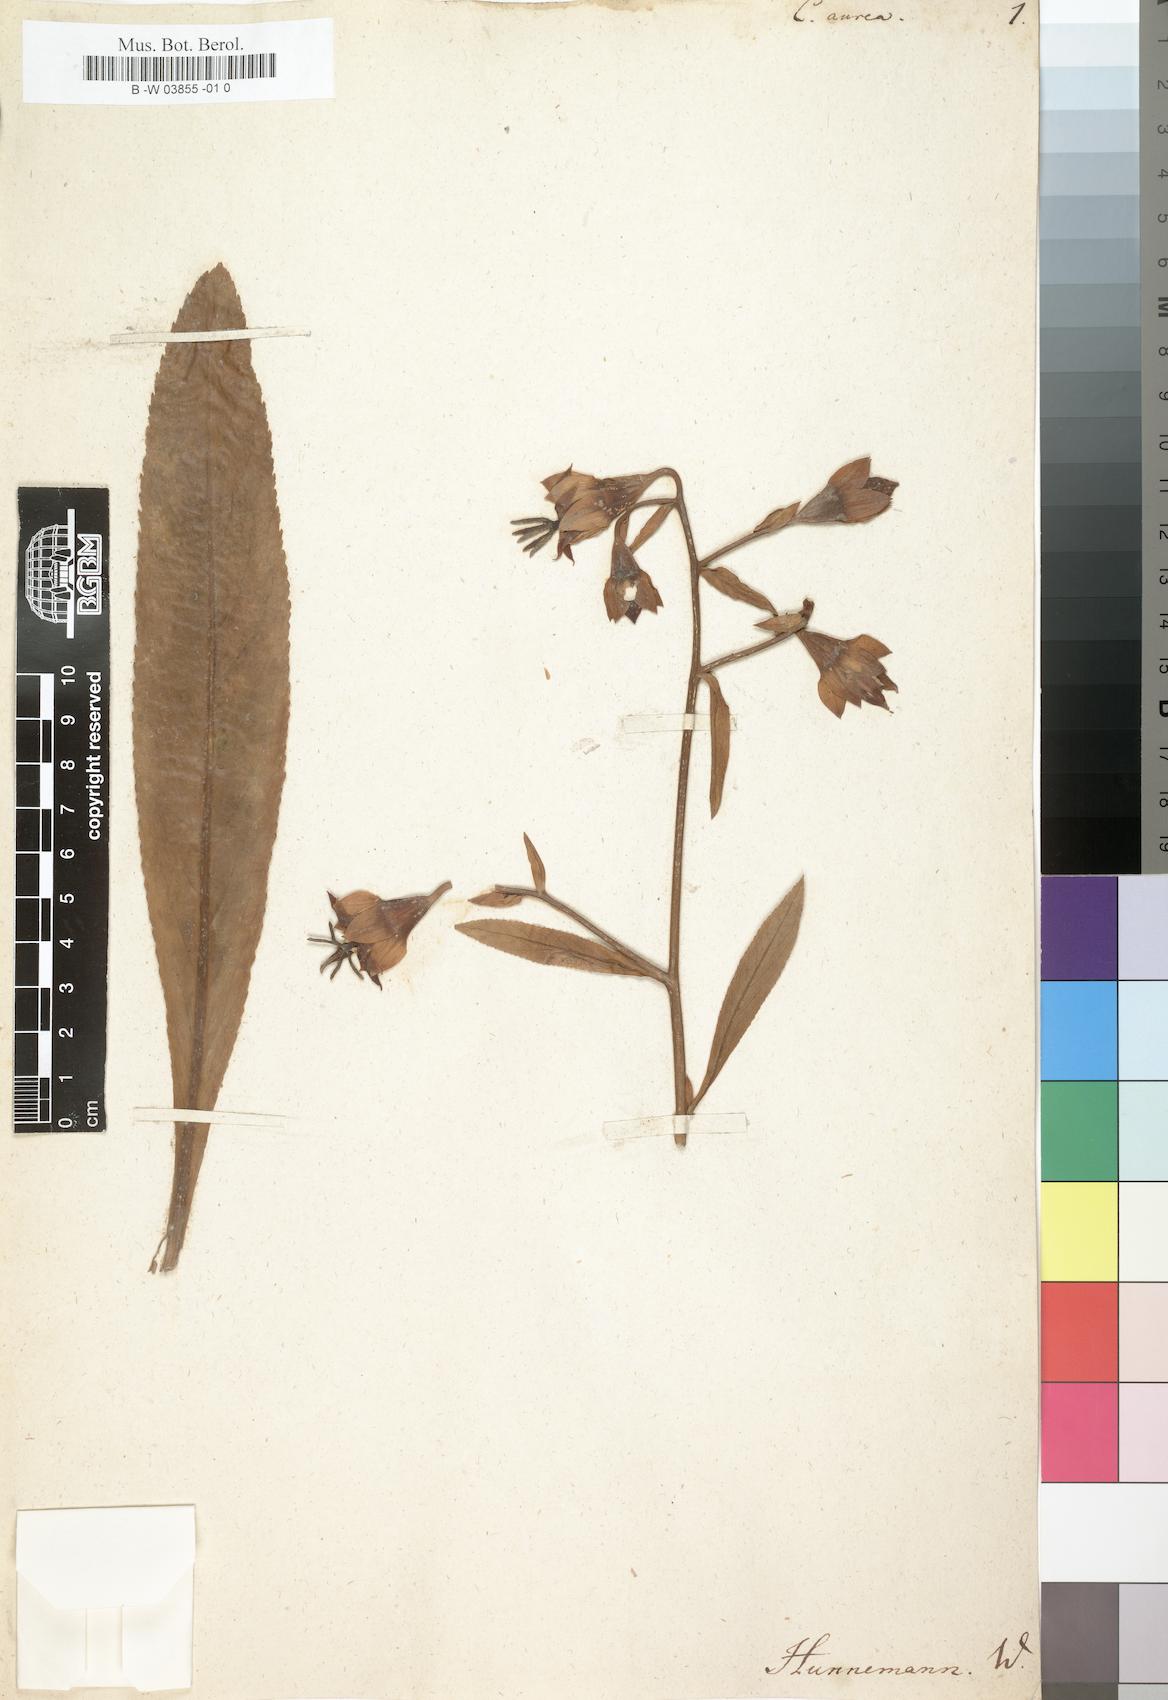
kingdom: Plantae
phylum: Tracheophyta
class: Magnoliopsida
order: Asterales
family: Campanulaceae
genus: Musschia
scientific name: Musschia aurea
